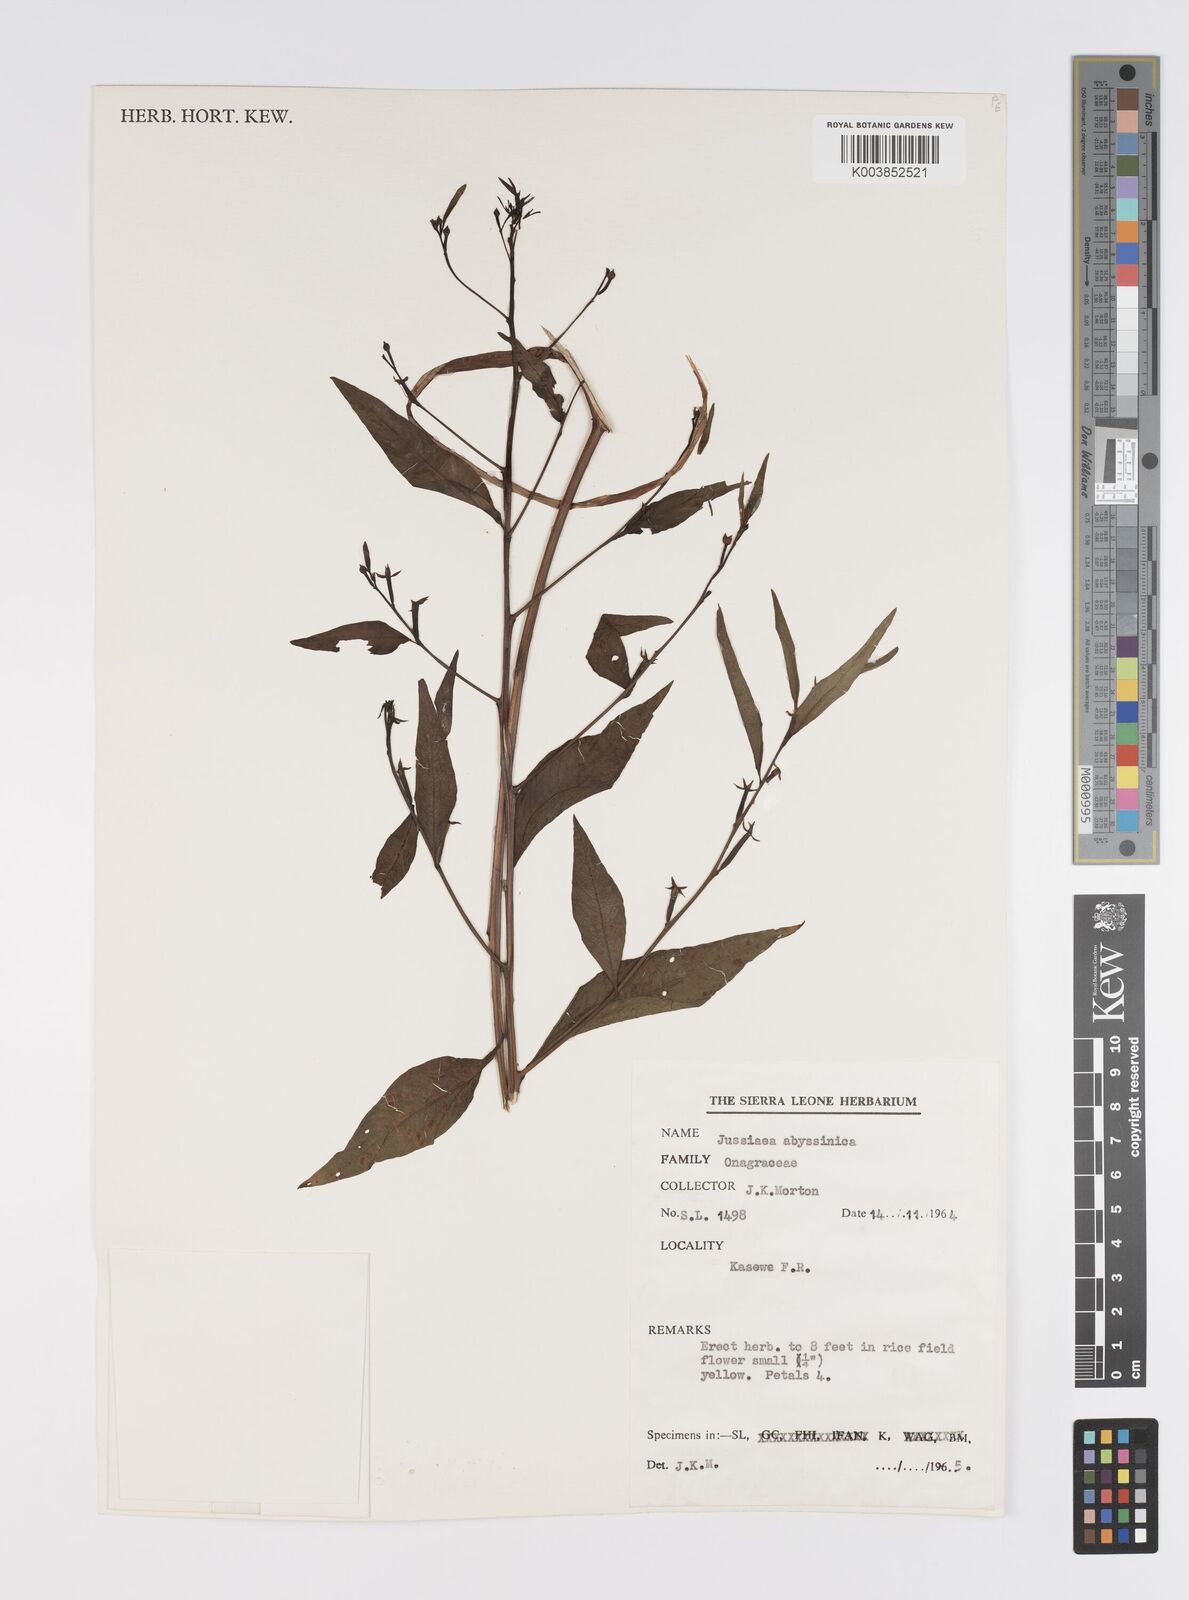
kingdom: Plantae
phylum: Tracheophyta
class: Magnoliopsida
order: Myrtales
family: Onagraceae
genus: Ludwigia
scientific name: Ludwigia abyssinica
